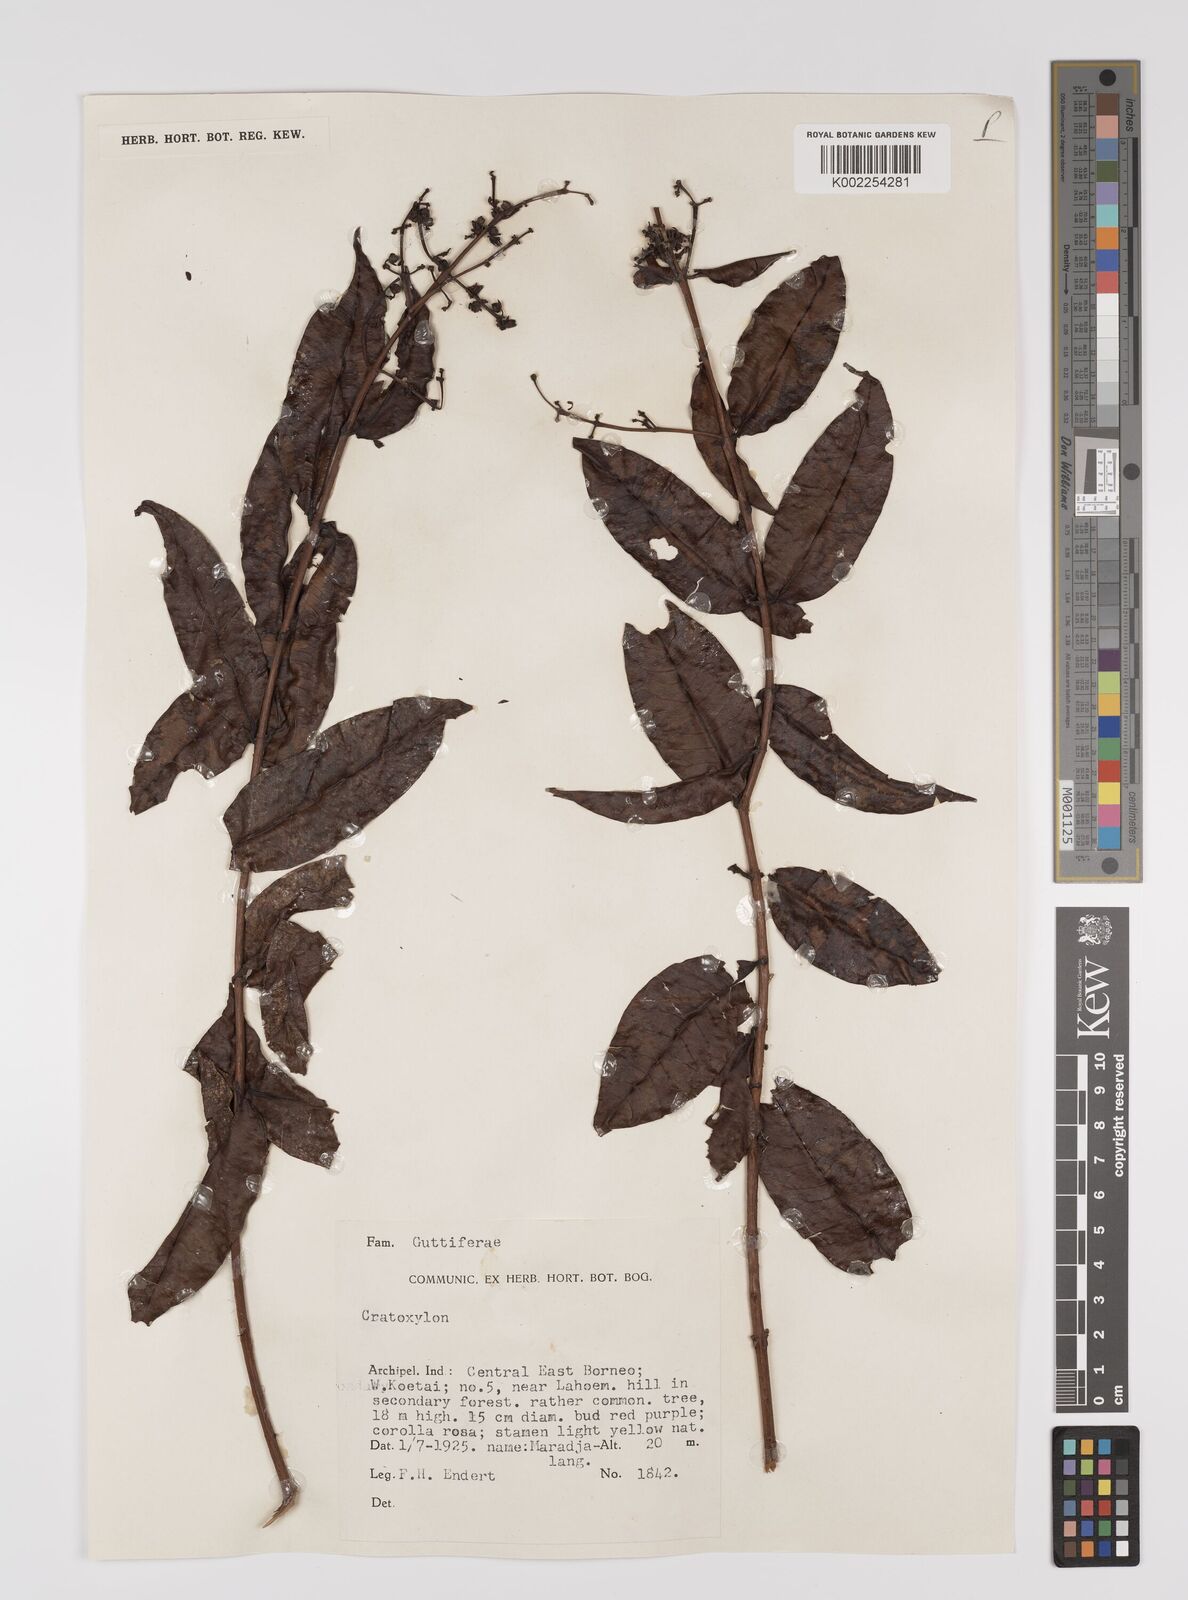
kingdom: Plantae
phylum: Tracheophyta
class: Magnoliopsida
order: Malpighiales
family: Hypericaceae
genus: Cratoxylum
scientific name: Cratoxylum
